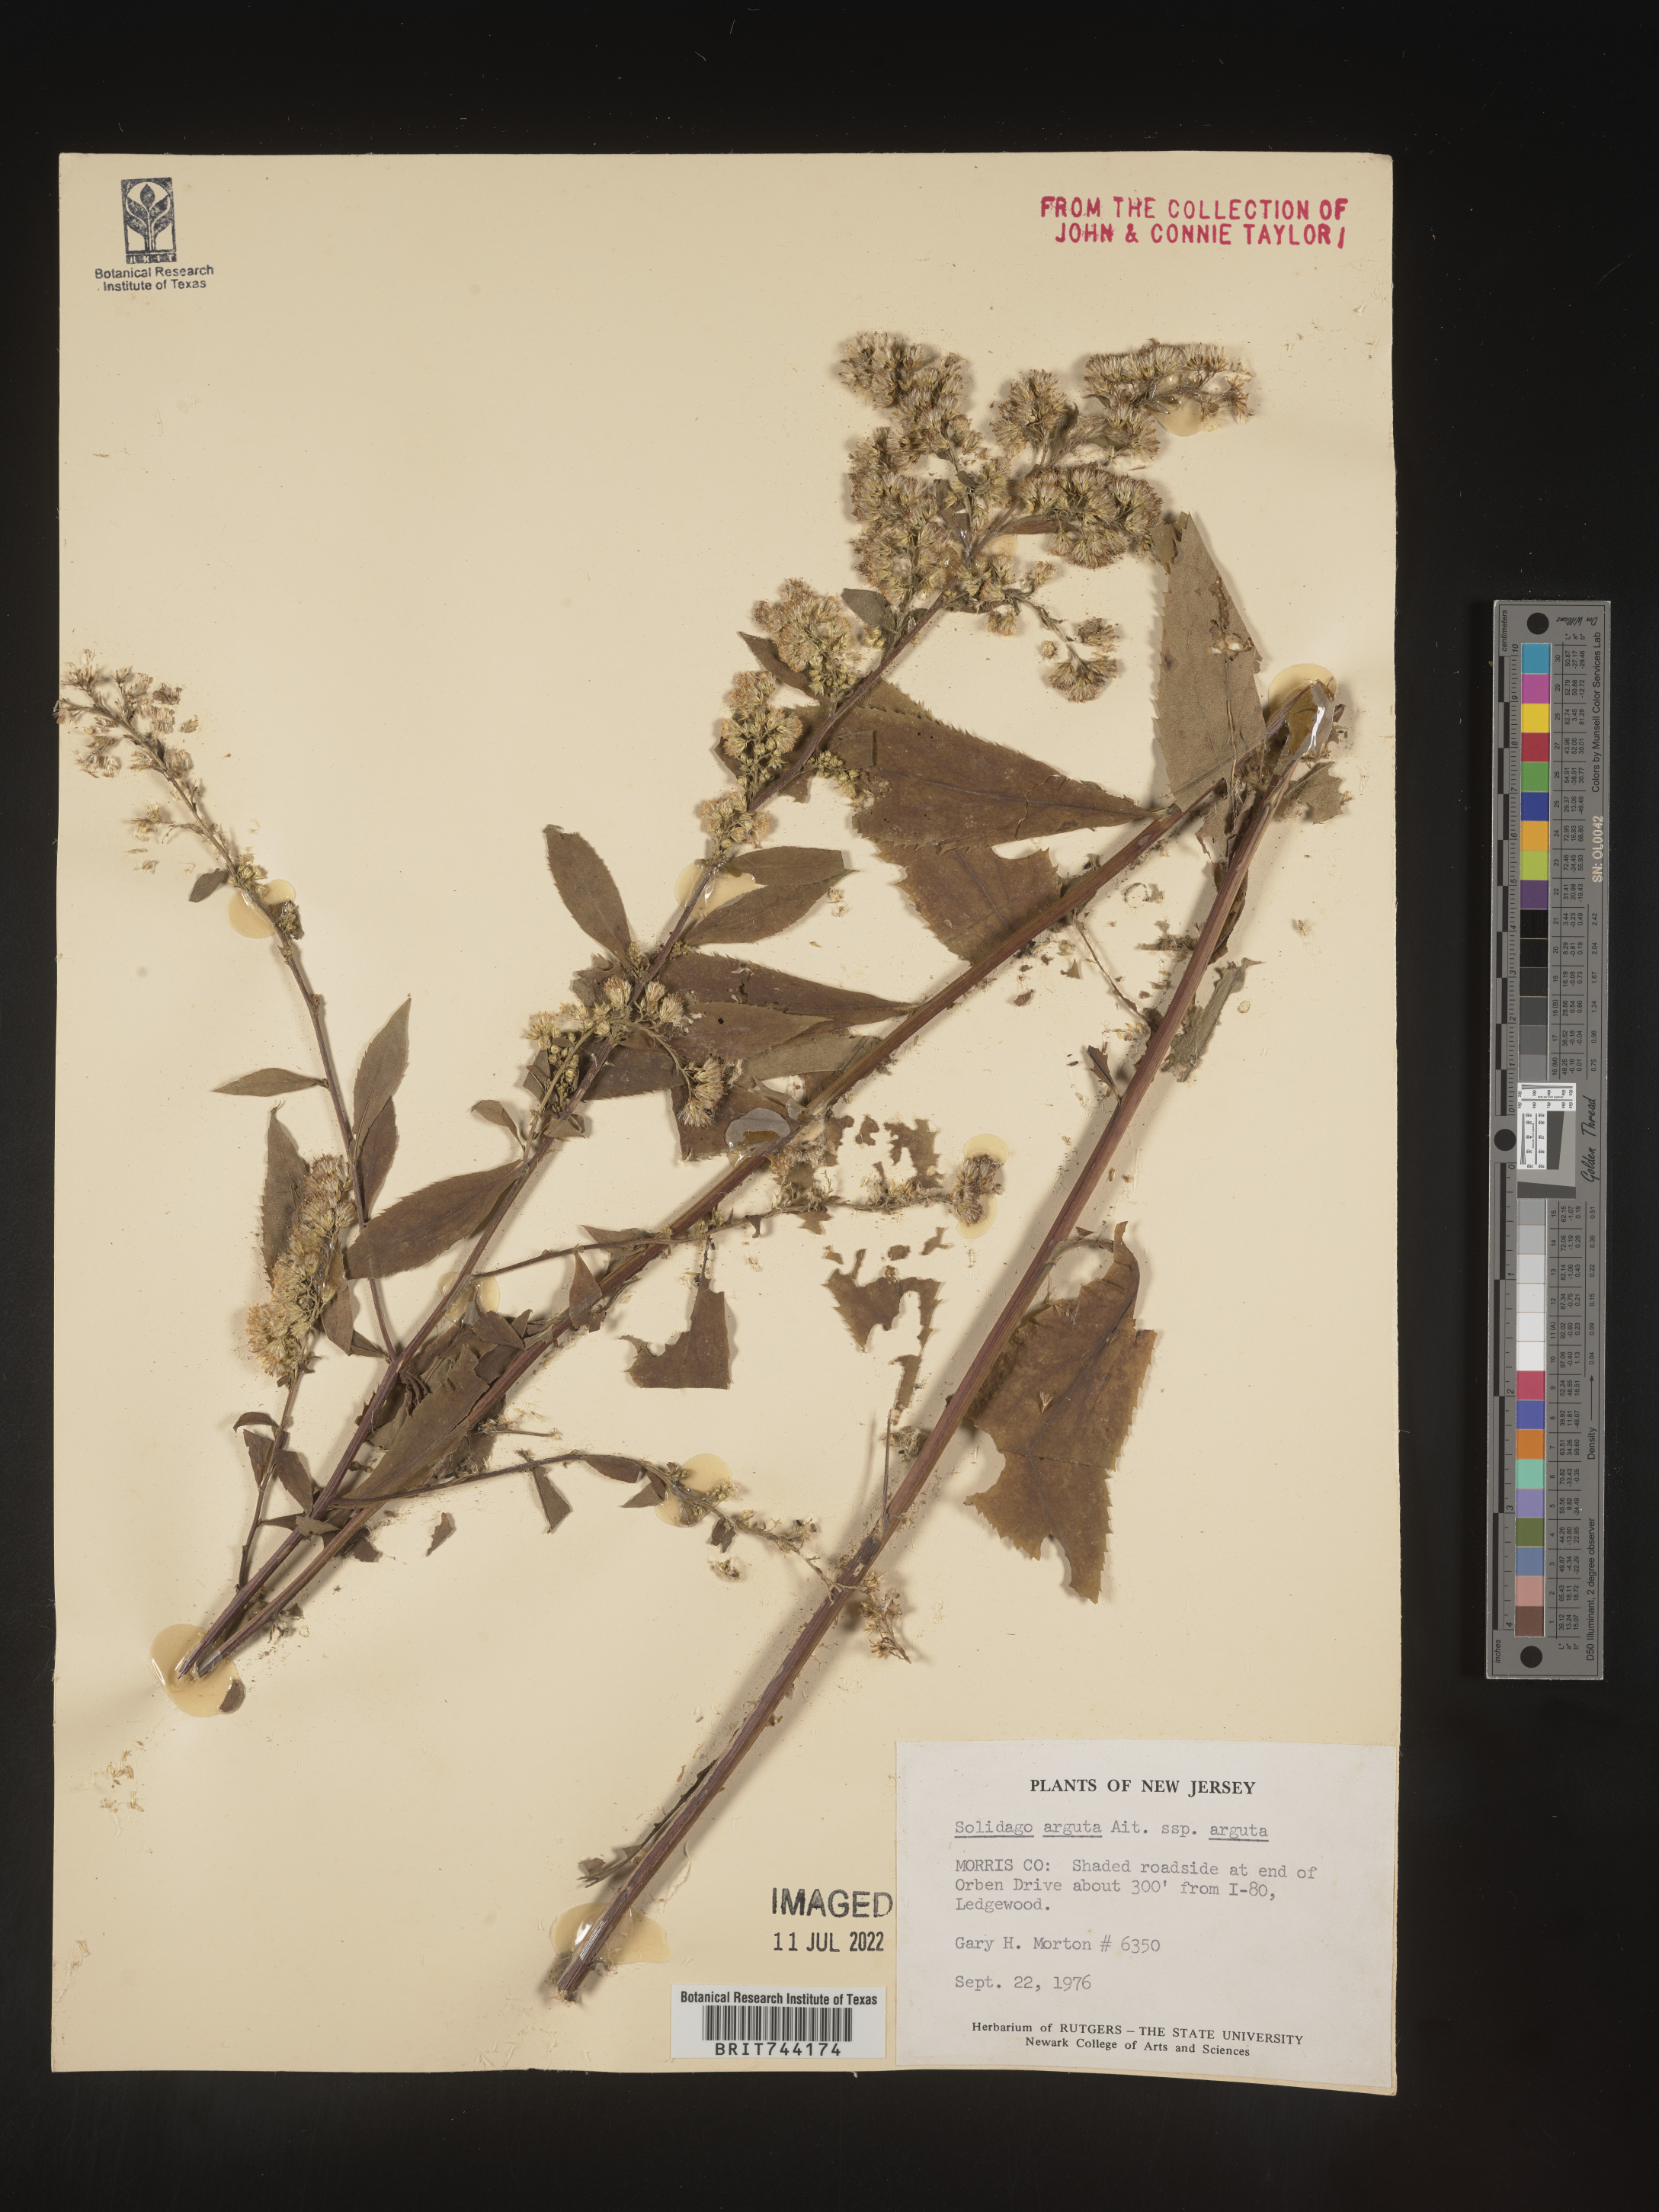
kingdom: Plantae
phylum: Tracheophyta
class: Magnoliopsida
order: Asterales
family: Asteraceae
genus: Solidago
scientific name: Solidago arguta
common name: Atlantic goldenrod
